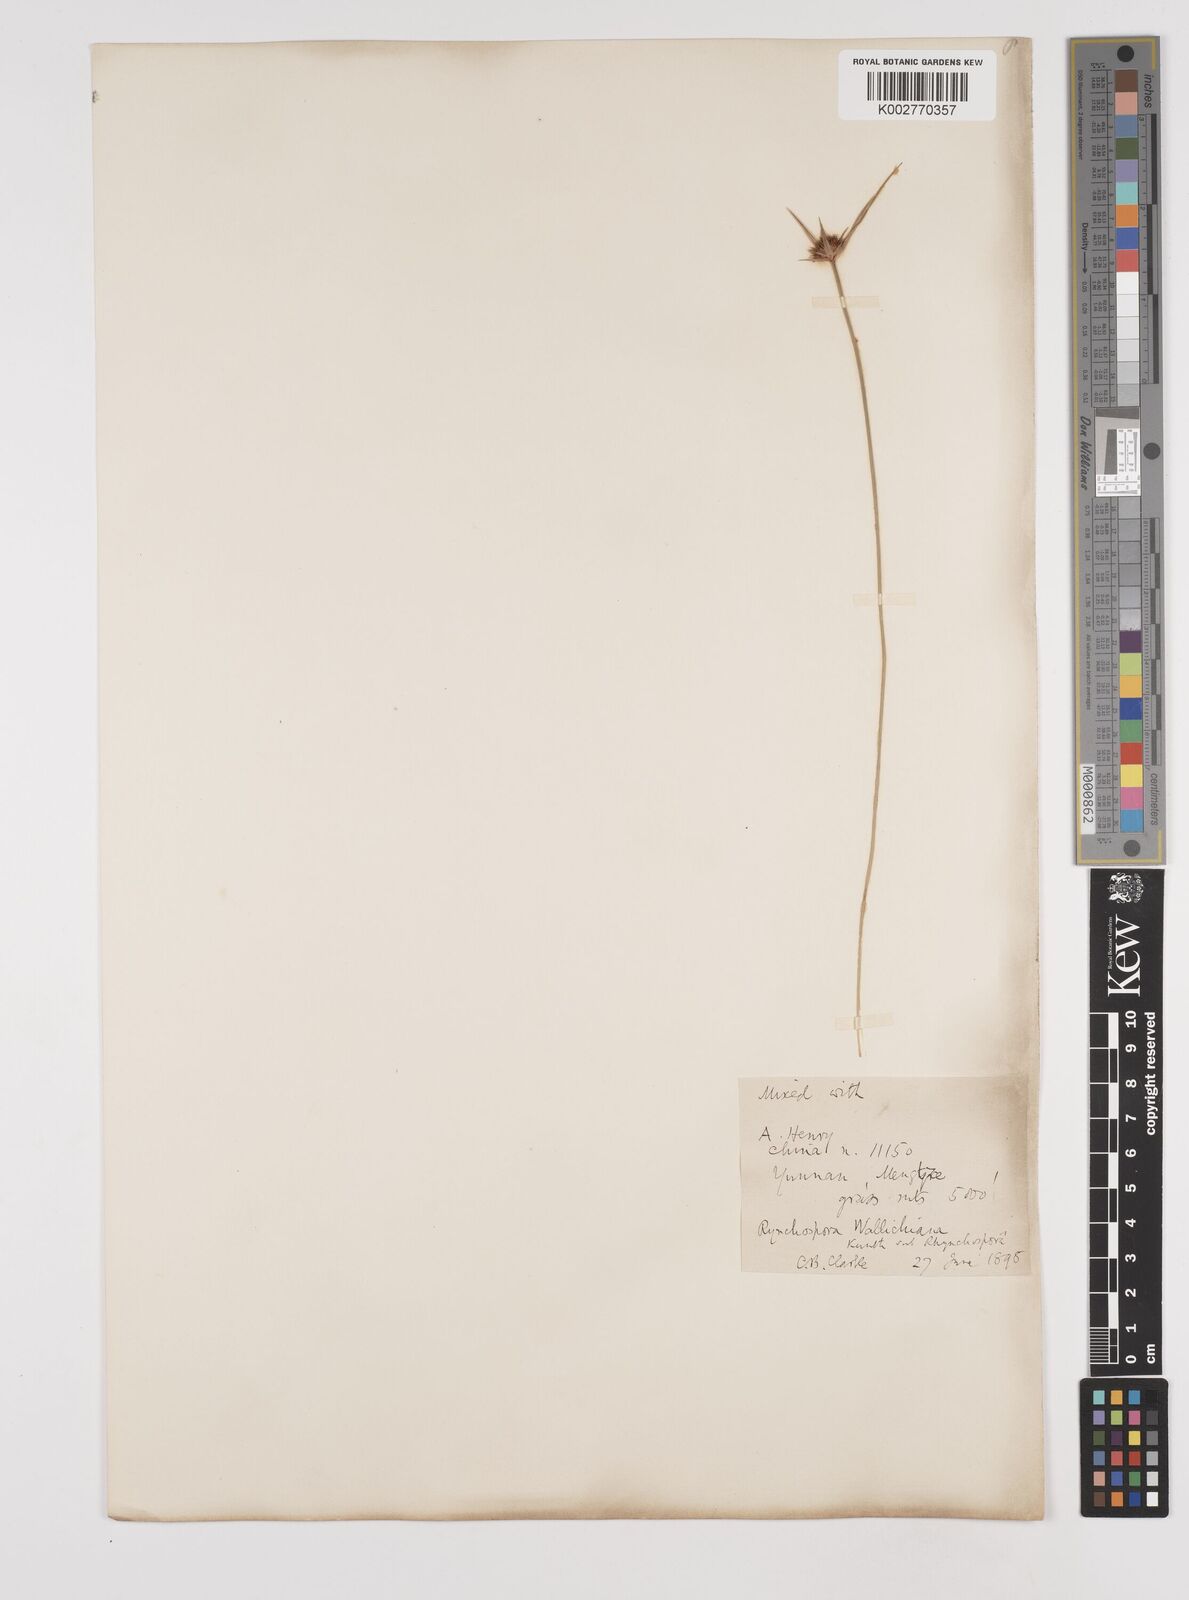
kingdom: Plantae
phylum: Tracheophyta
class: Liliopsida
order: Poales
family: Cyperaceae
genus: Rhynchospora
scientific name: Rhynchospora rubra
